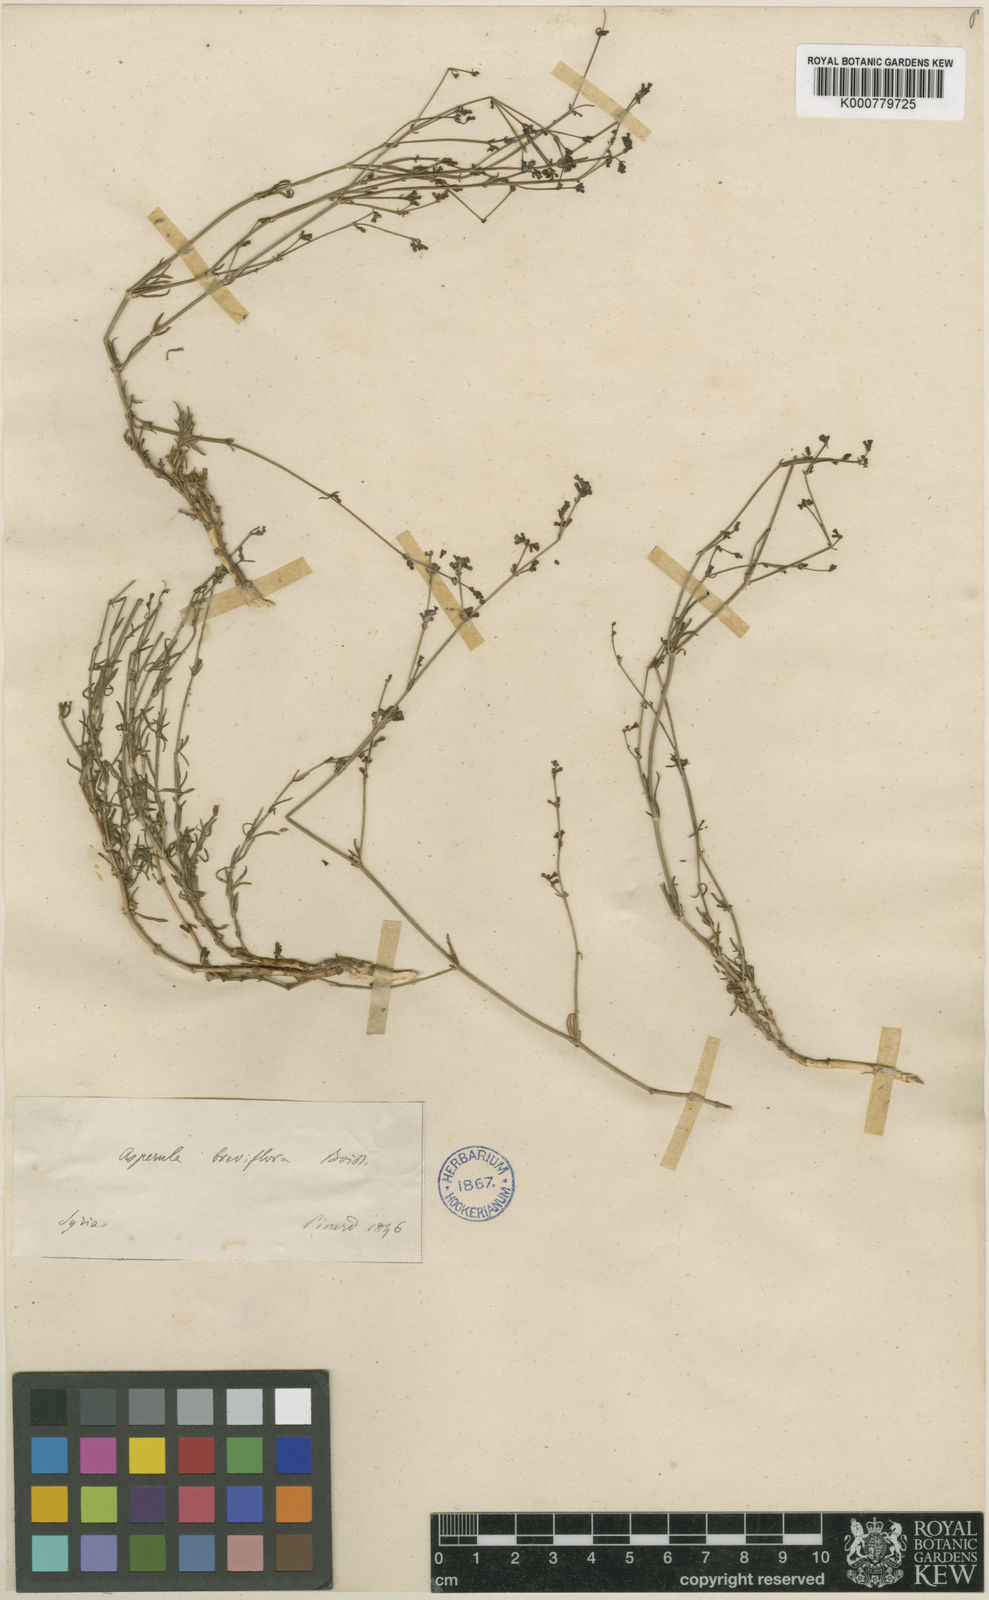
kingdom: Plantae
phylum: Tracheophyta
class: Magnoliopsida
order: Gentianales
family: Rubiaceae
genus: Cynanchica
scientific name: Cynanchica breviflora
